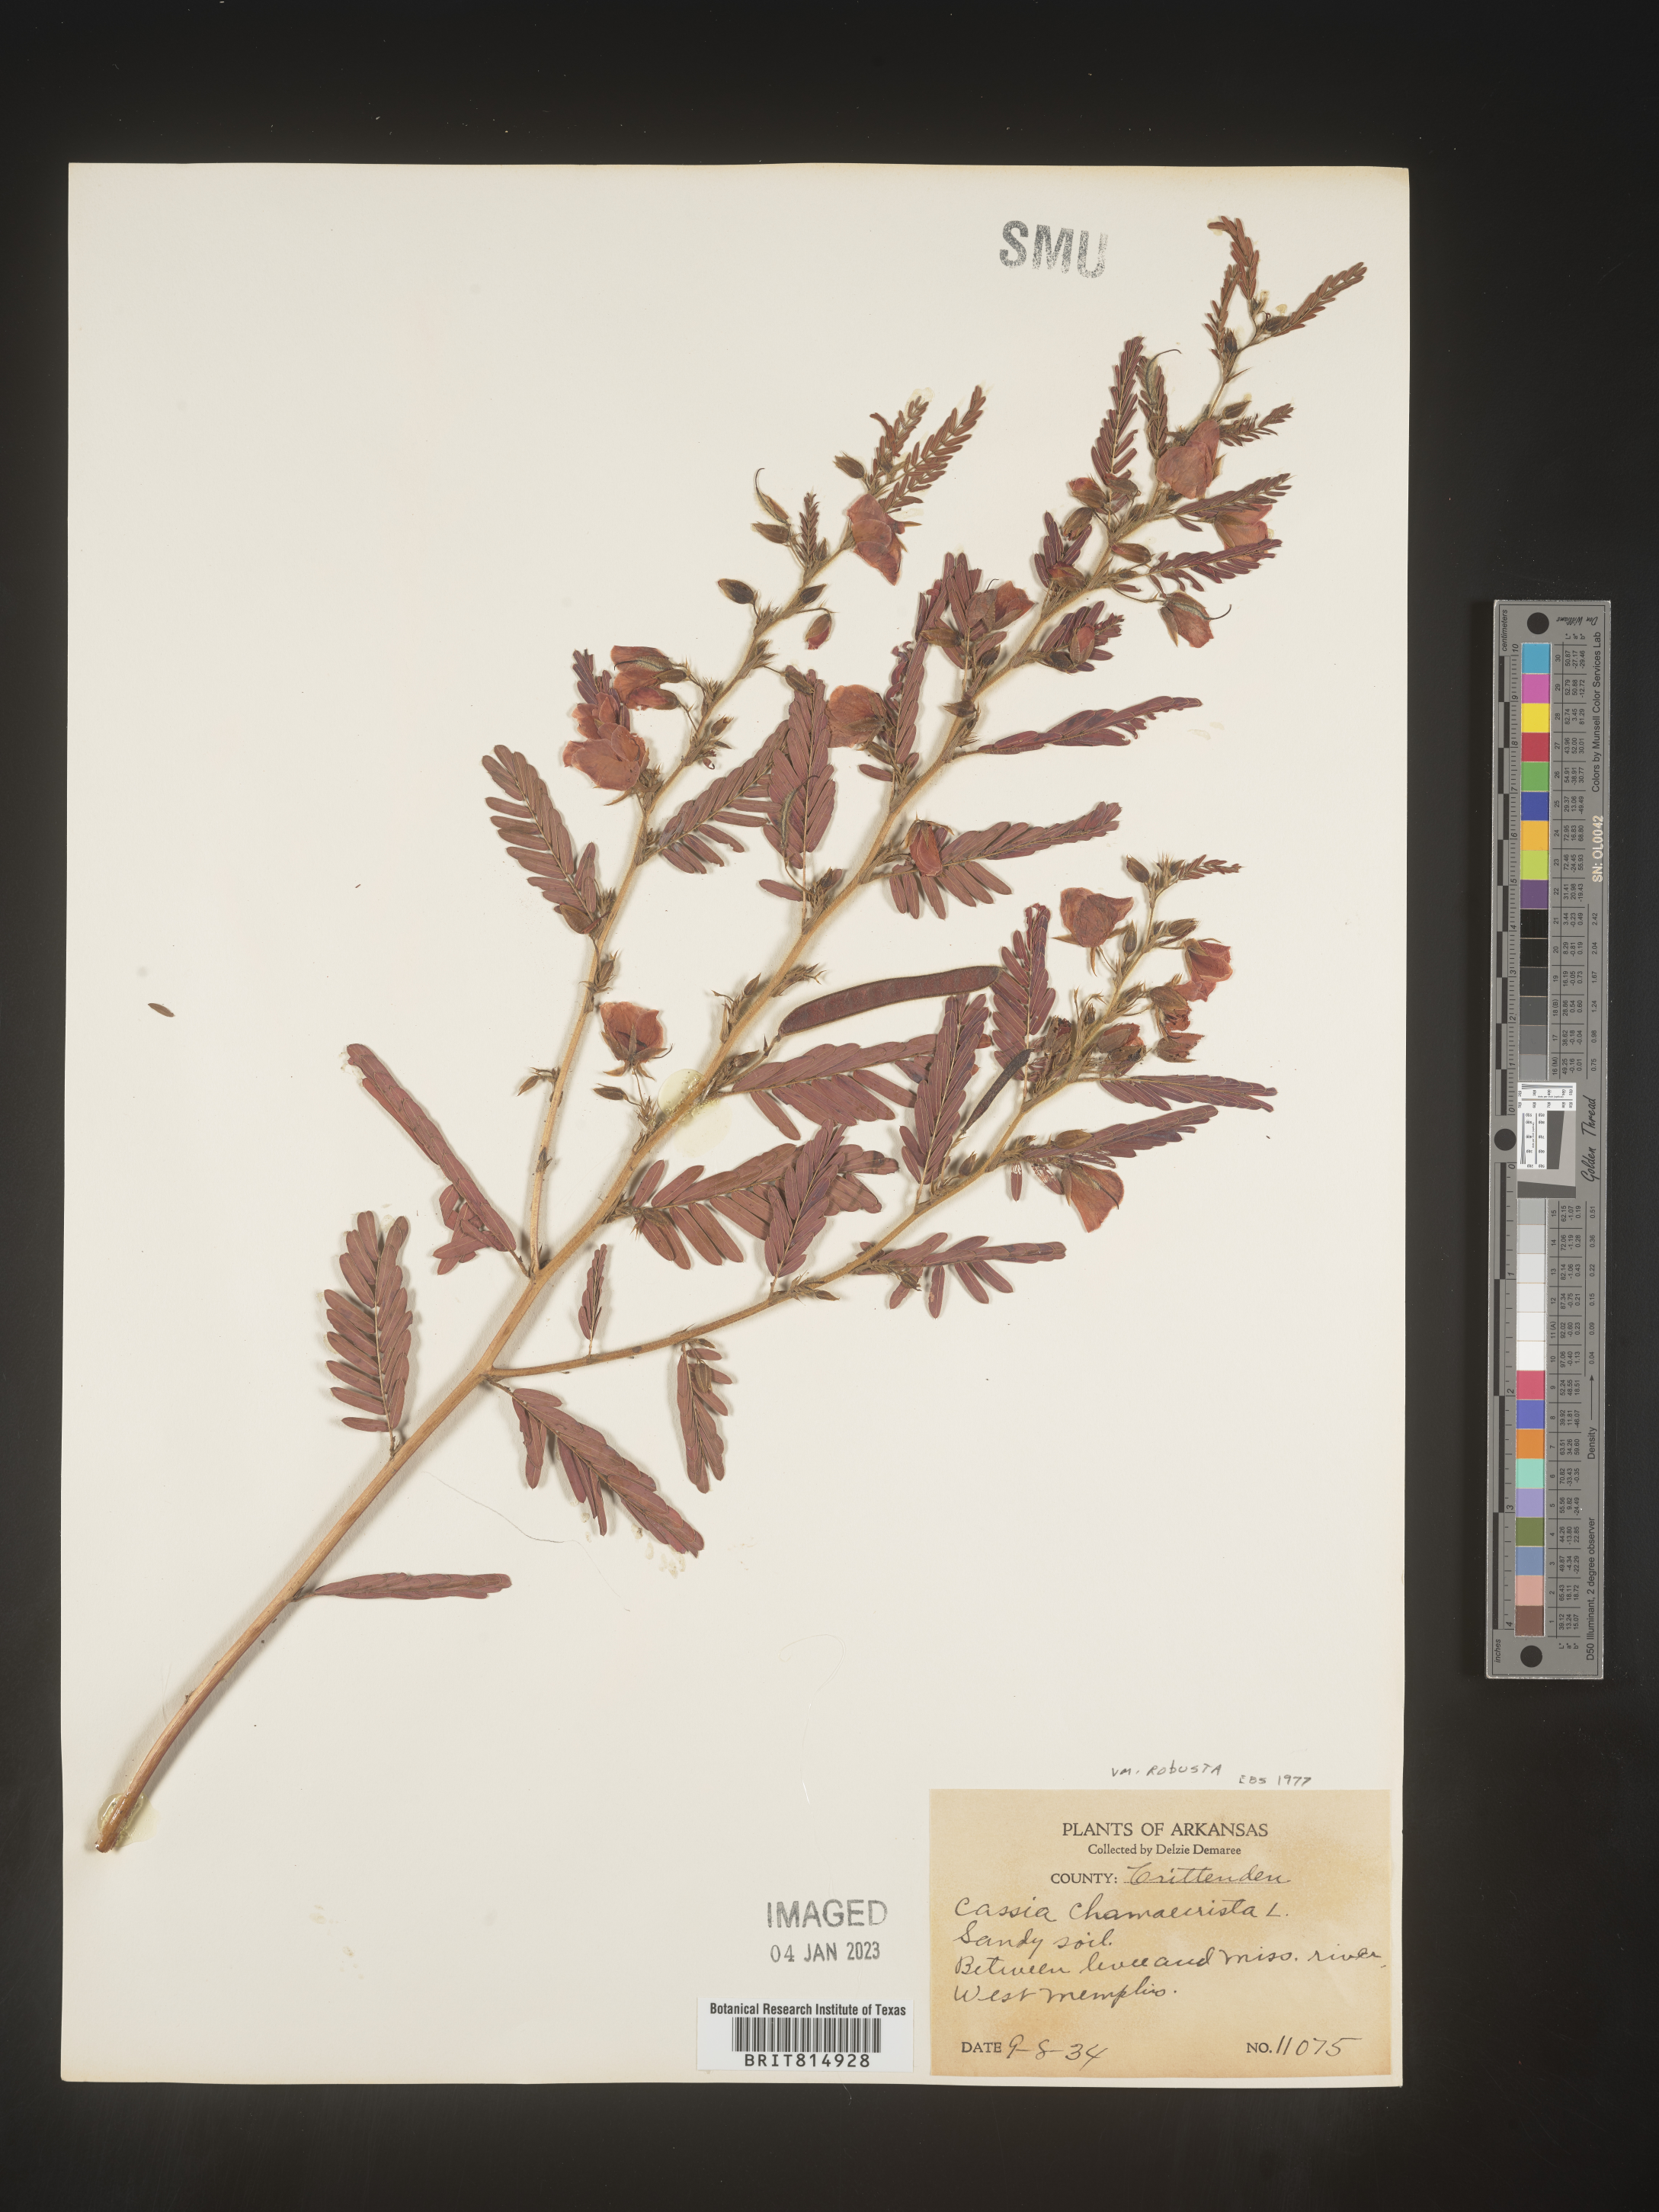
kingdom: Plantae
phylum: Tracheophyta
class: Magnoliopsida
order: Fabales
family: Fabaceae
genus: Chamaecrista
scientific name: Chamaecrista fasciculata
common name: Golden cassia
